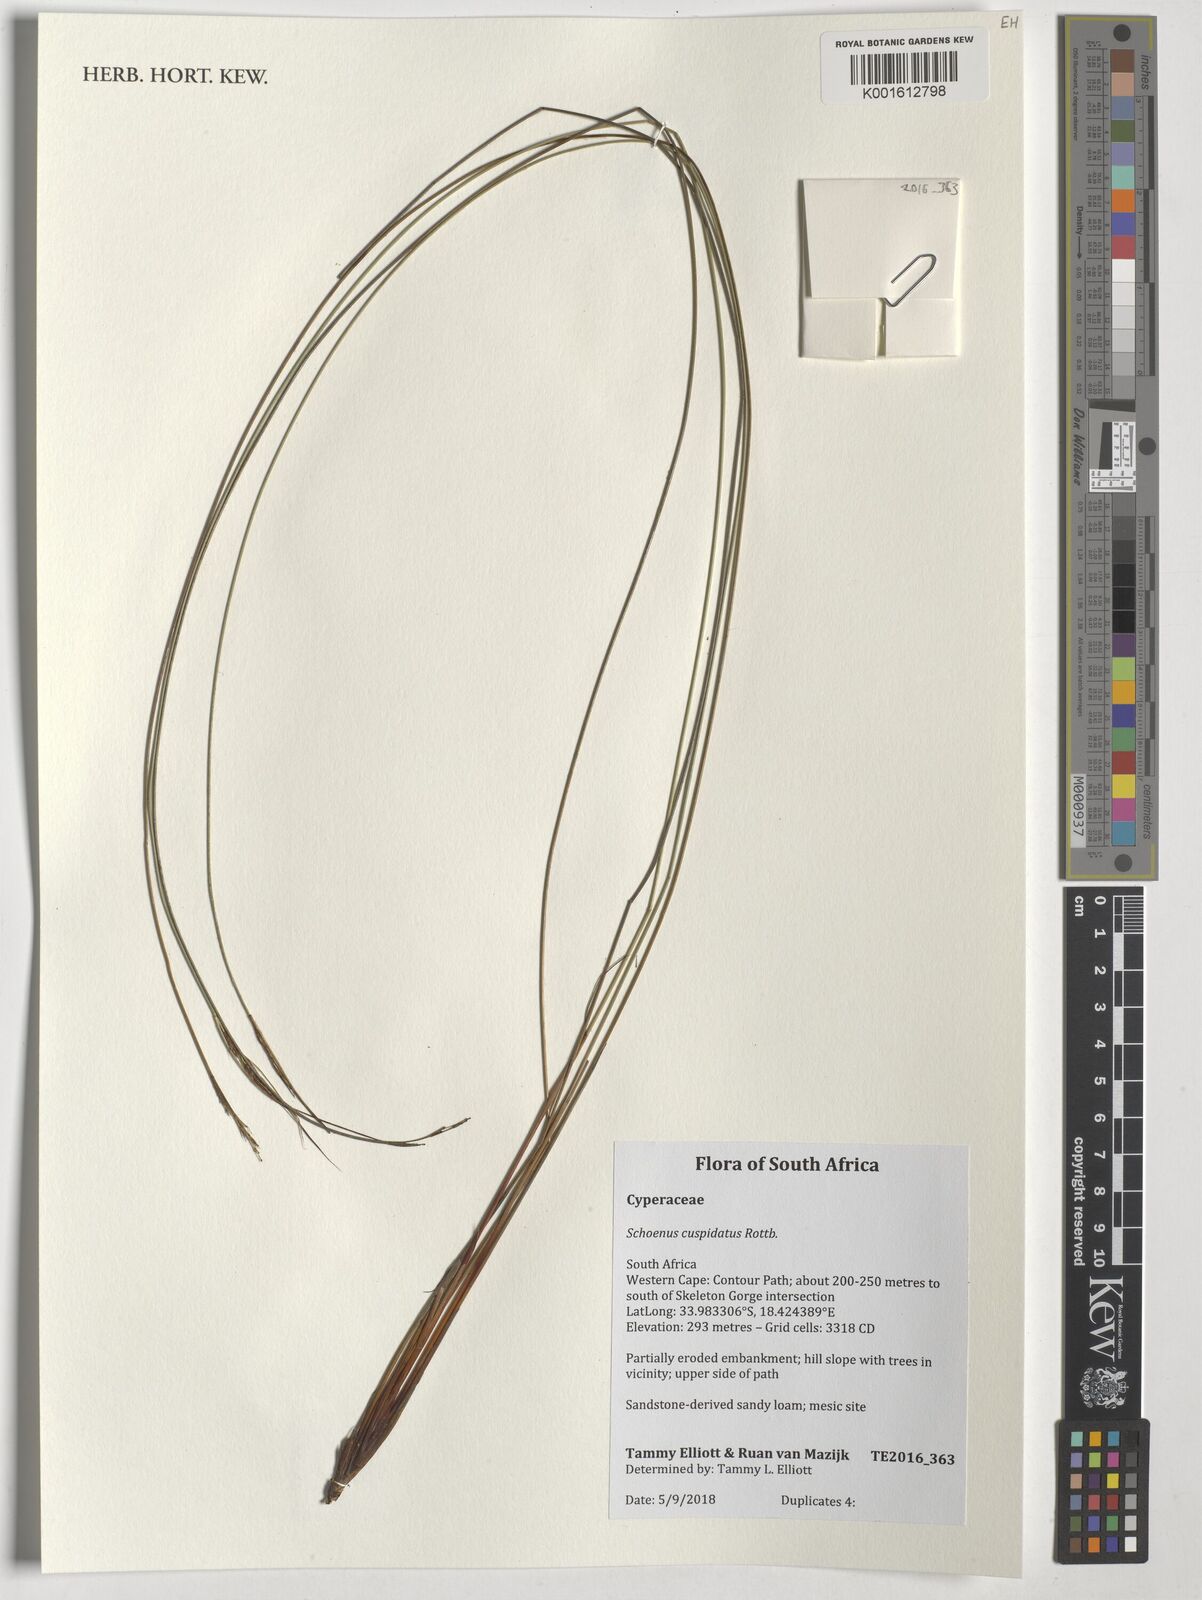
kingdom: Plantae
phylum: Tracheophyta
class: Liliopsida
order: Poales
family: Cyperaceae
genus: Schoenus
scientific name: Schoenus cuspidatus
